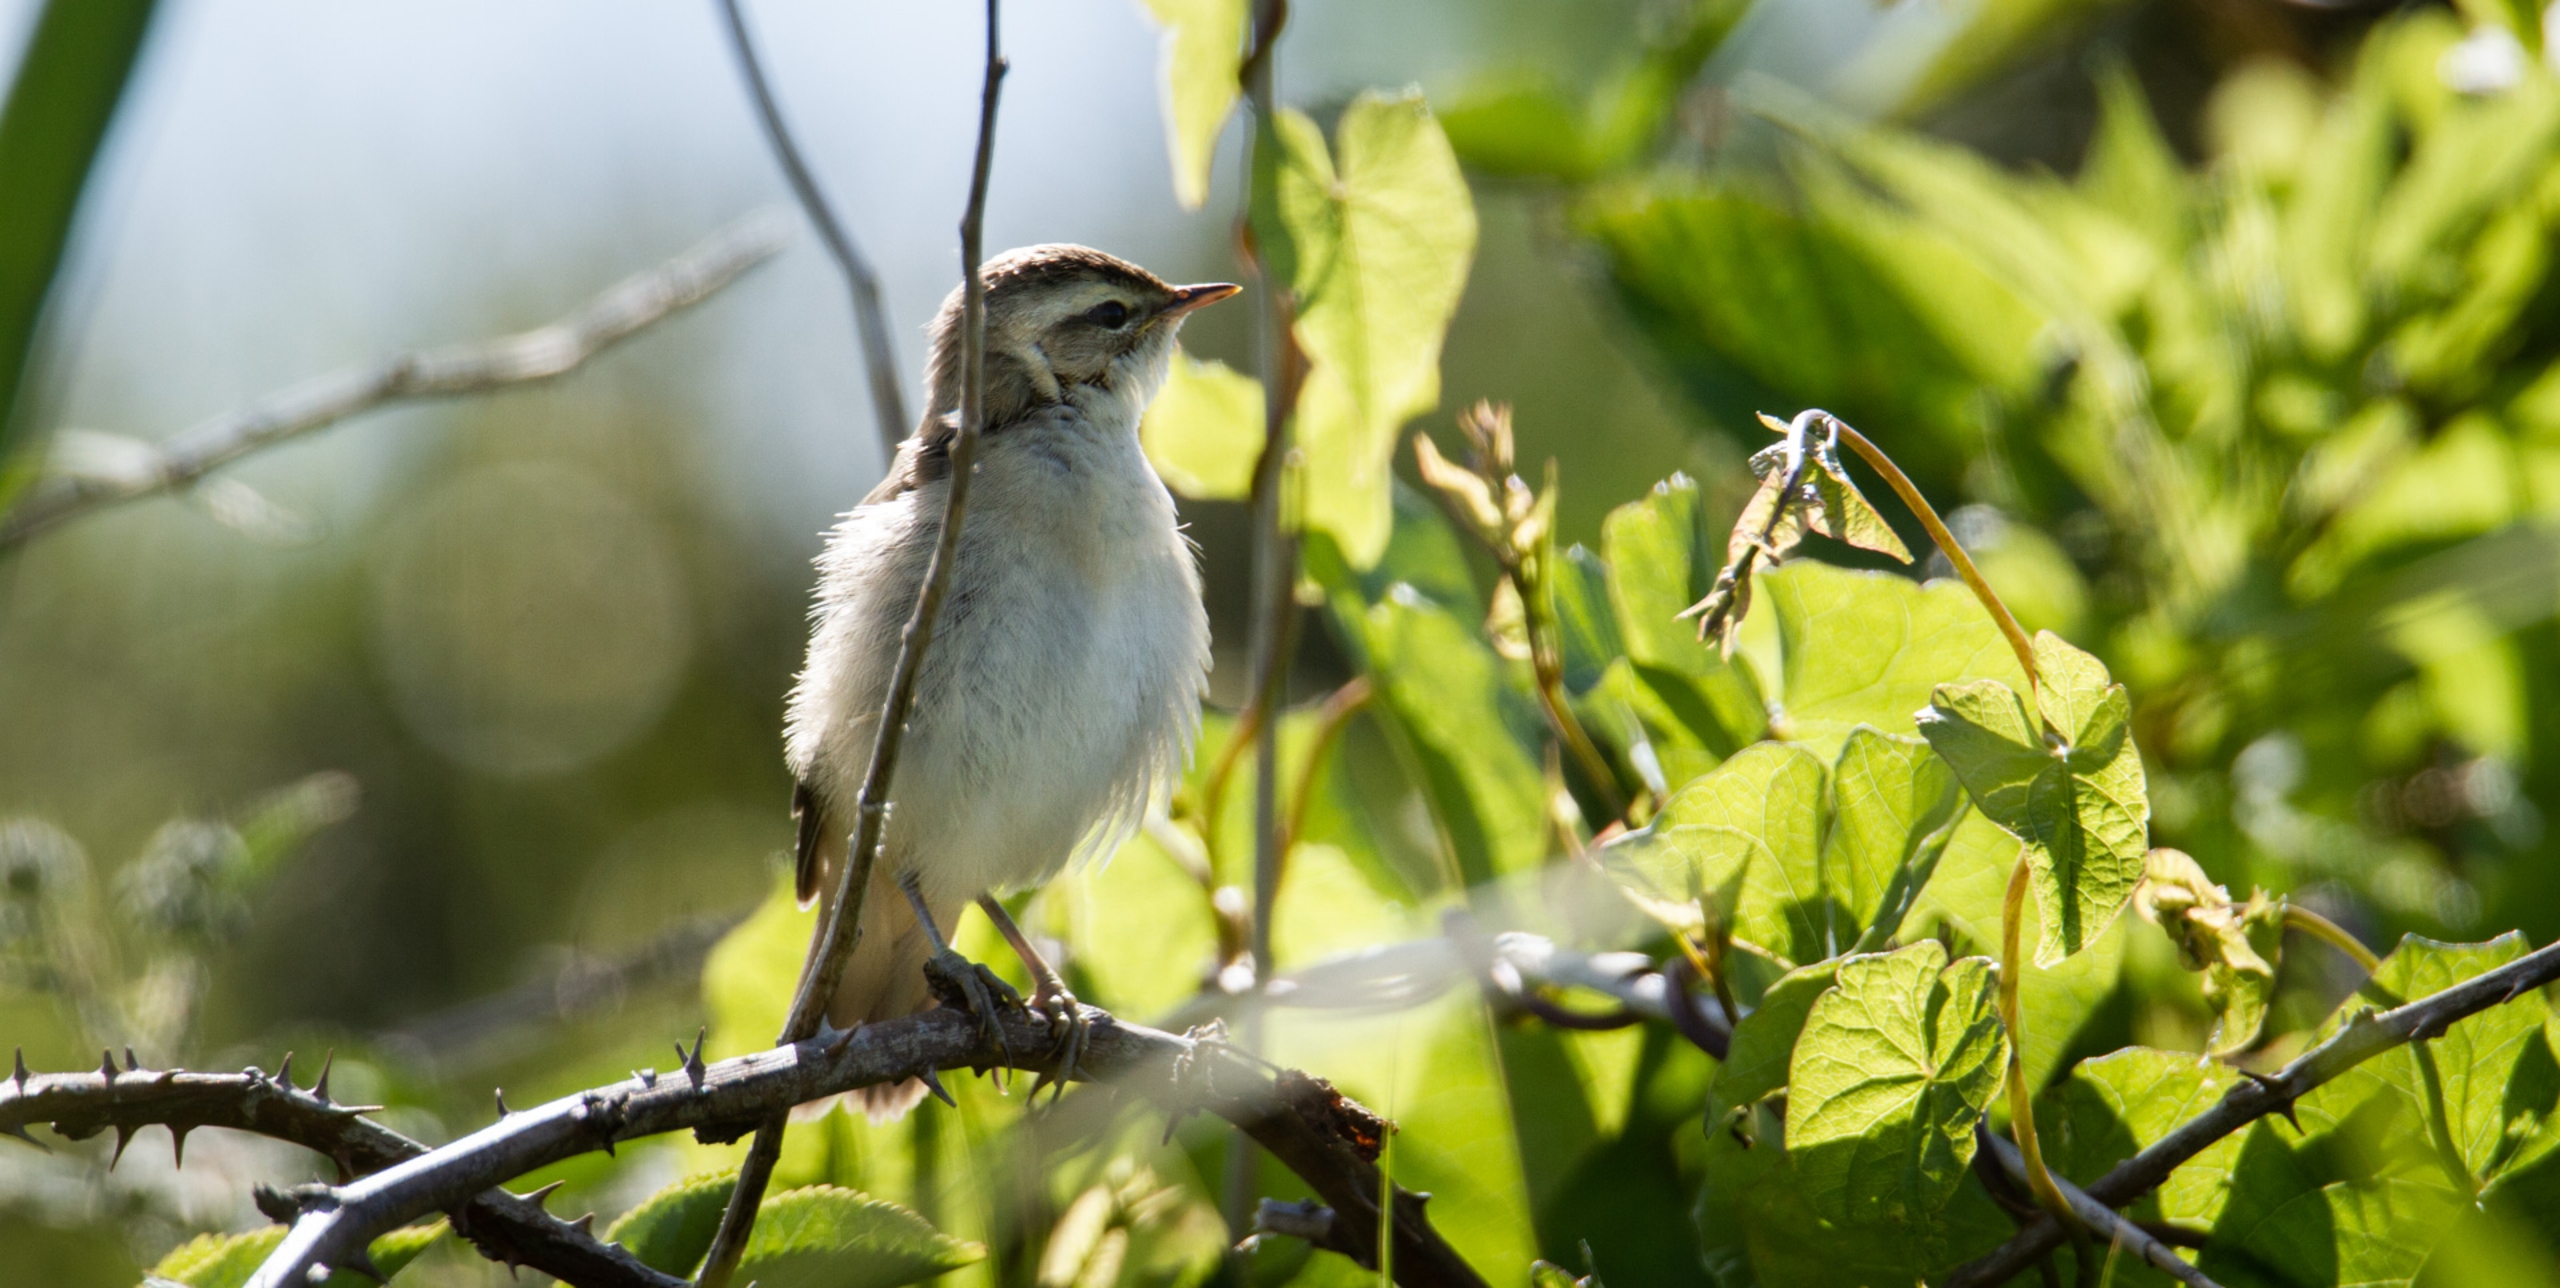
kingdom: Animalia
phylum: Chordata
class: Aves
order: Passeriformes
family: Acrocephalidae
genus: Acrocephalus
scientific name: Acrocephalus schoenobaenus
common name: Sivsanger
